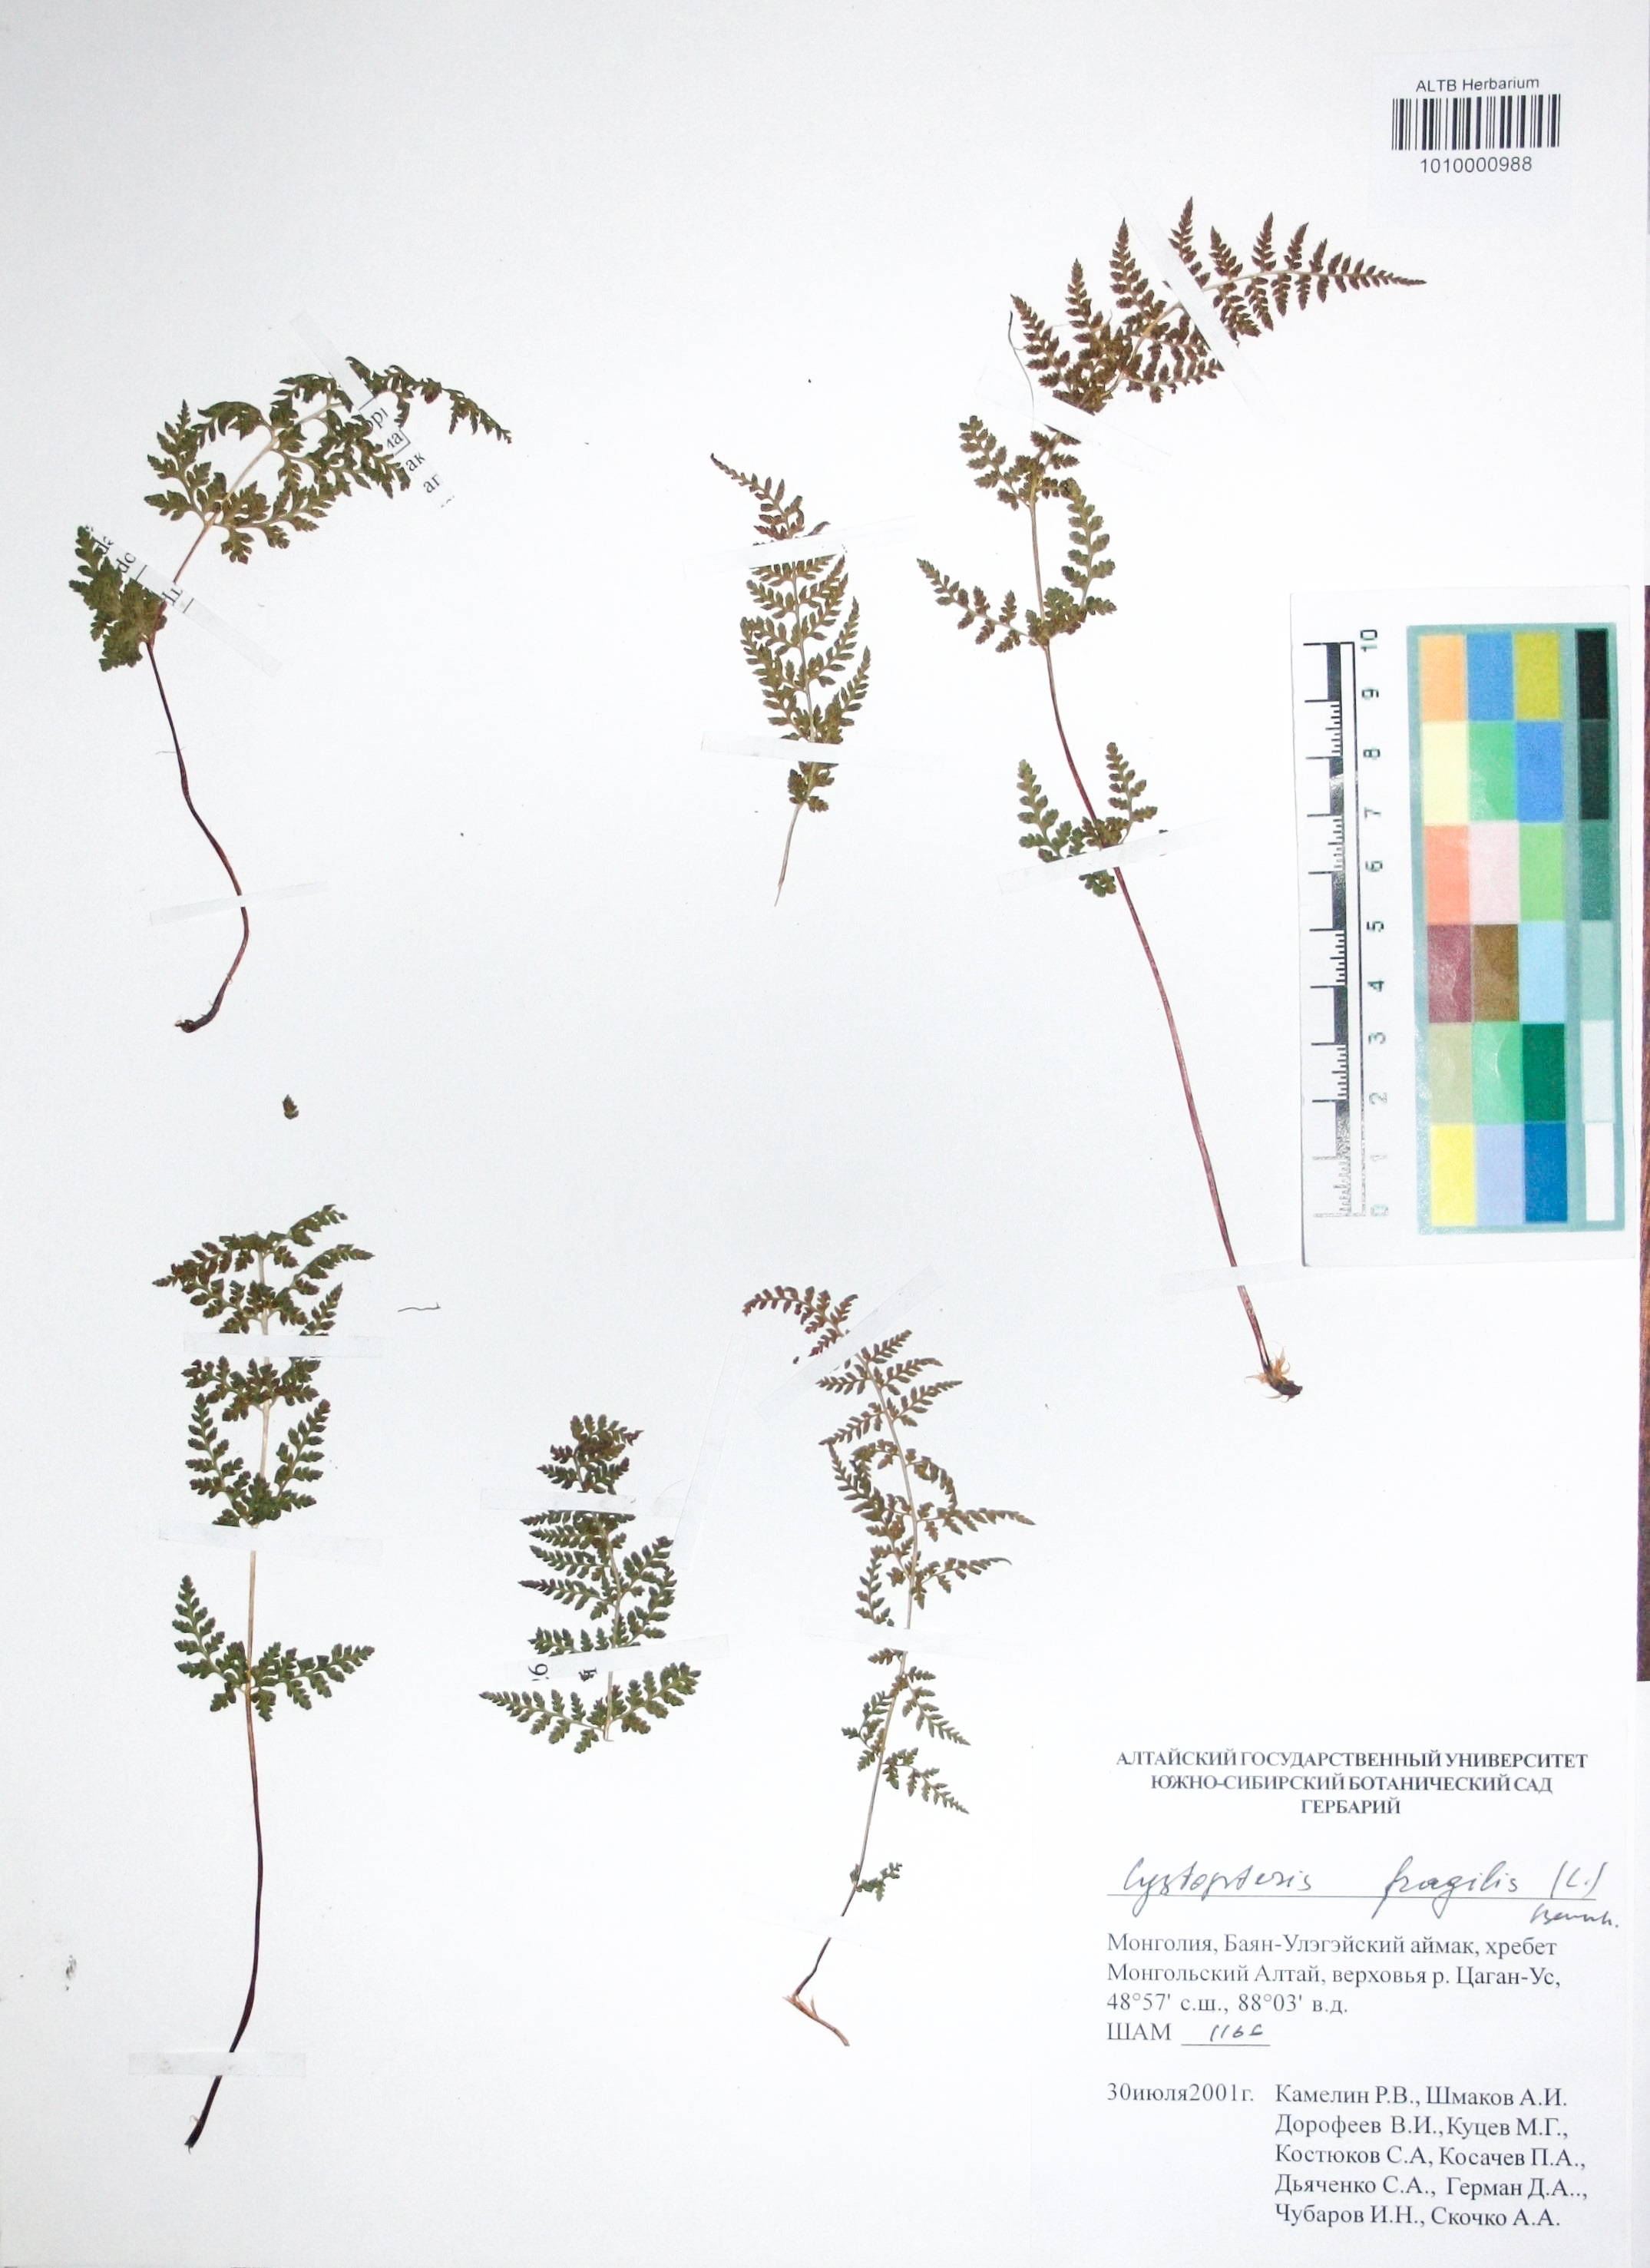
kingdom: Plantae
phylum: Tracheophyta
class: Polypodiopsida
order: Polypodiales
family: Cystopteridaceae
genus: Cystopteris
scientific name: Cystopteris fragilis
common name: Brittle bladder fern
